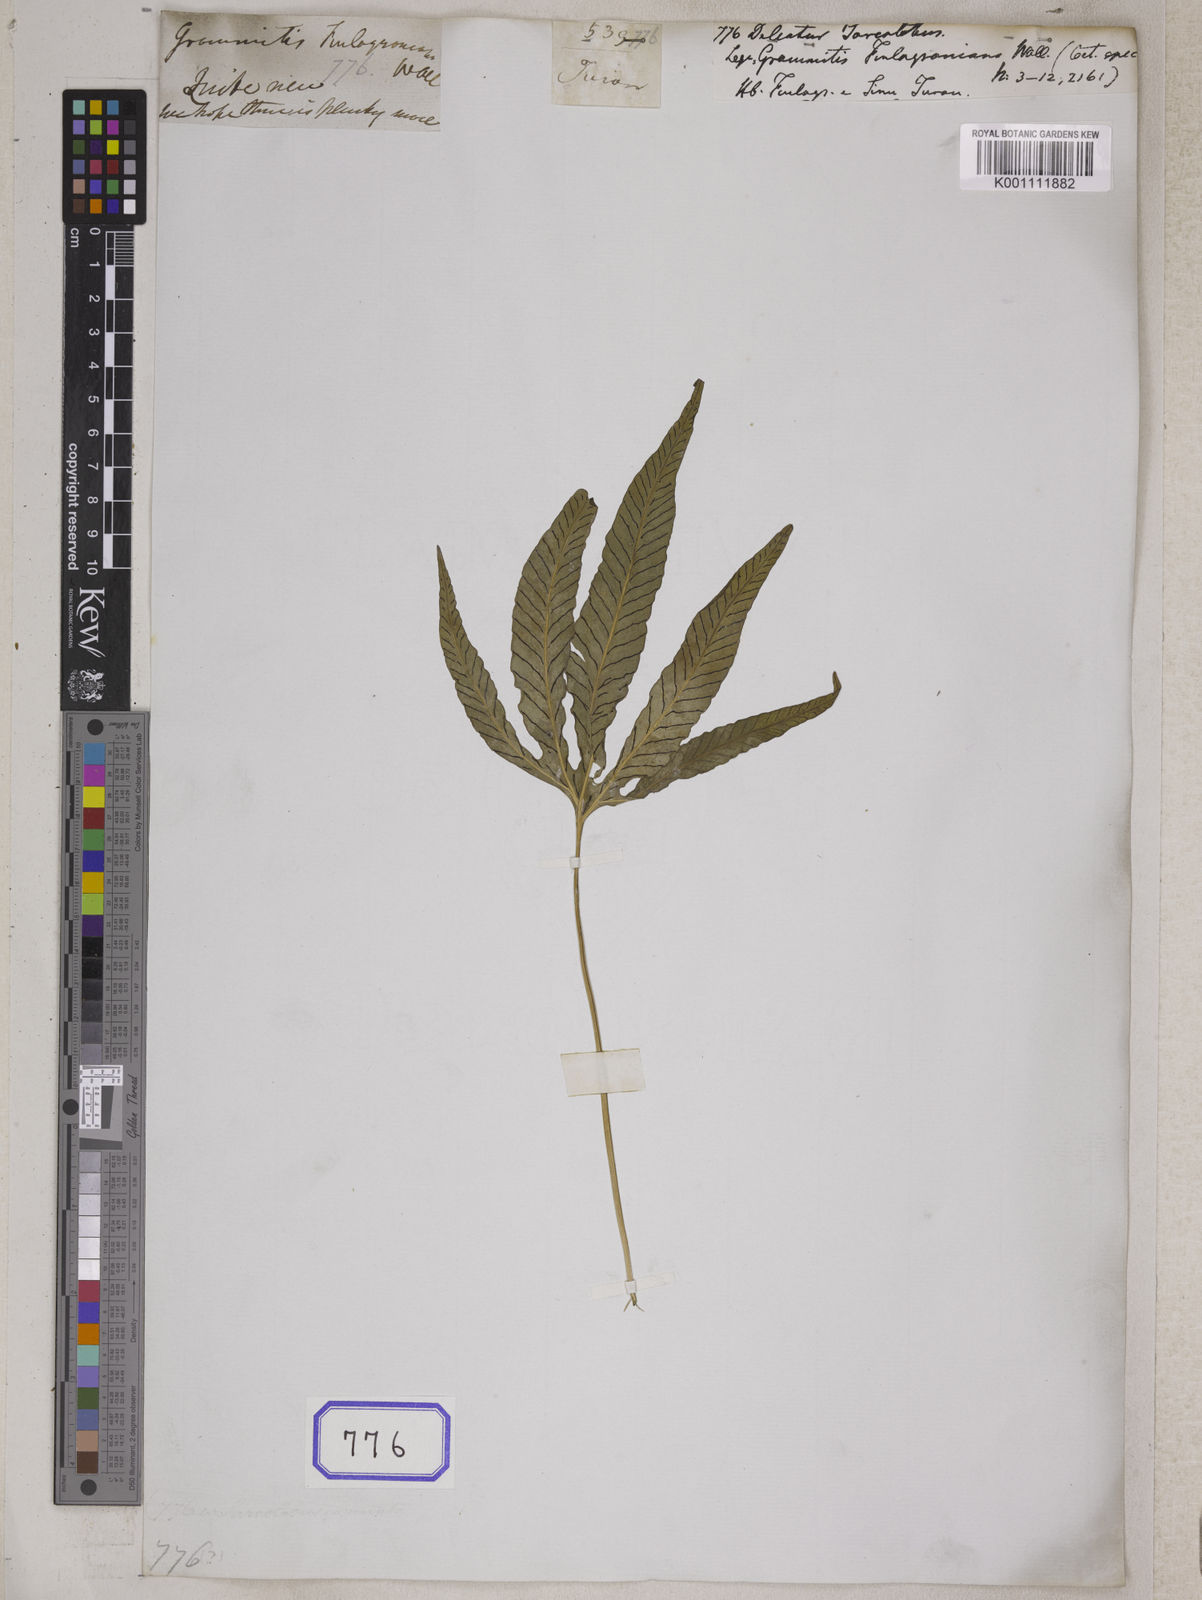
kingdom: Plantae
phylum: Tracheophyta
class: Polypodiopsida
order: Polypodiales
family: Polypodiaceae
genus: Leptochilus
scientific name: Leptochilus digitatus
